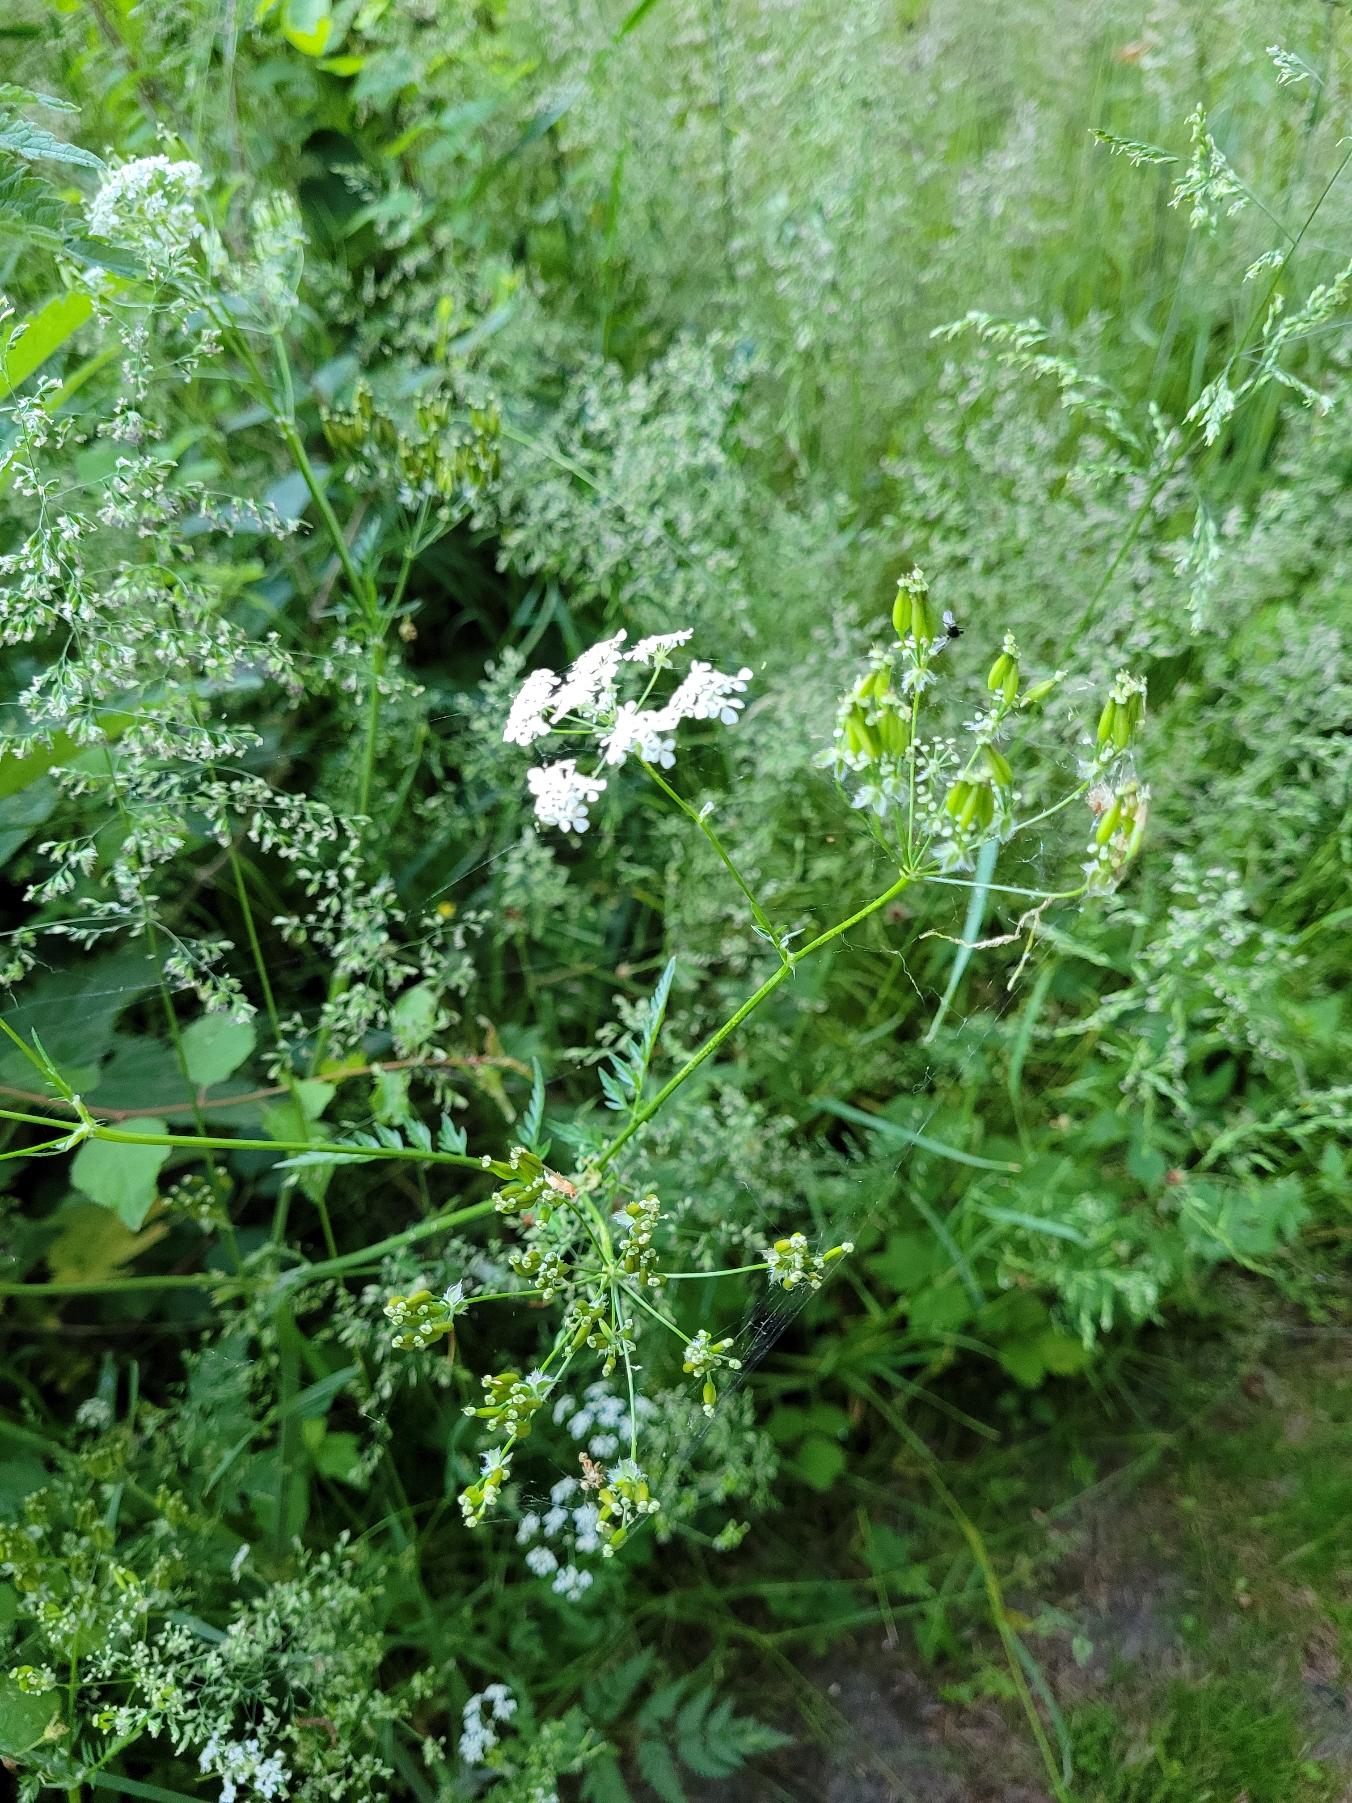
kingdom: Plantae
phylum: Tracheophyta
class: Magnoliopsida
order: Apiales
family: Apiaceae
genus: Anthriscus
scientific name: Anthriscus sylvestris
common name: Vild kørvel
